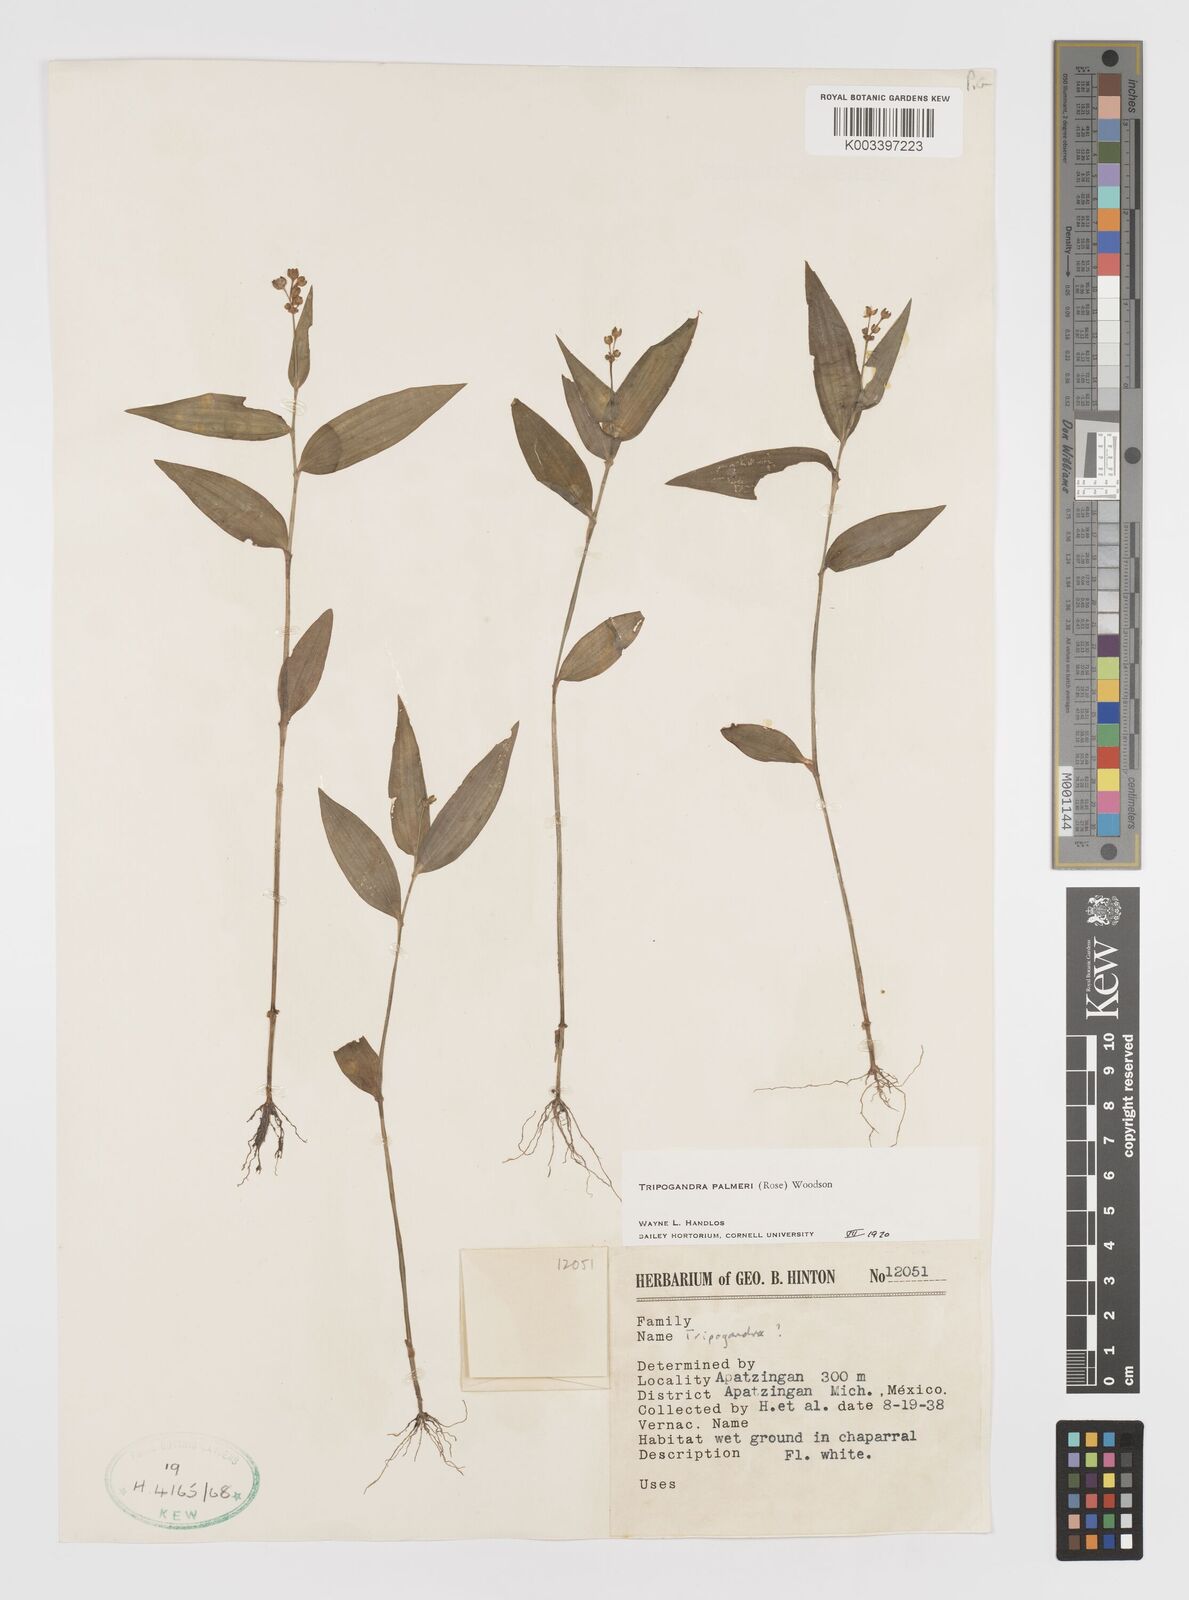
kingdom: Plantae
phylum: Tracheophyta
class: Liliopsida
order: Commelinales
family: Commelinaceae
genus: Callisia
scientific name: Callisia palmeri
